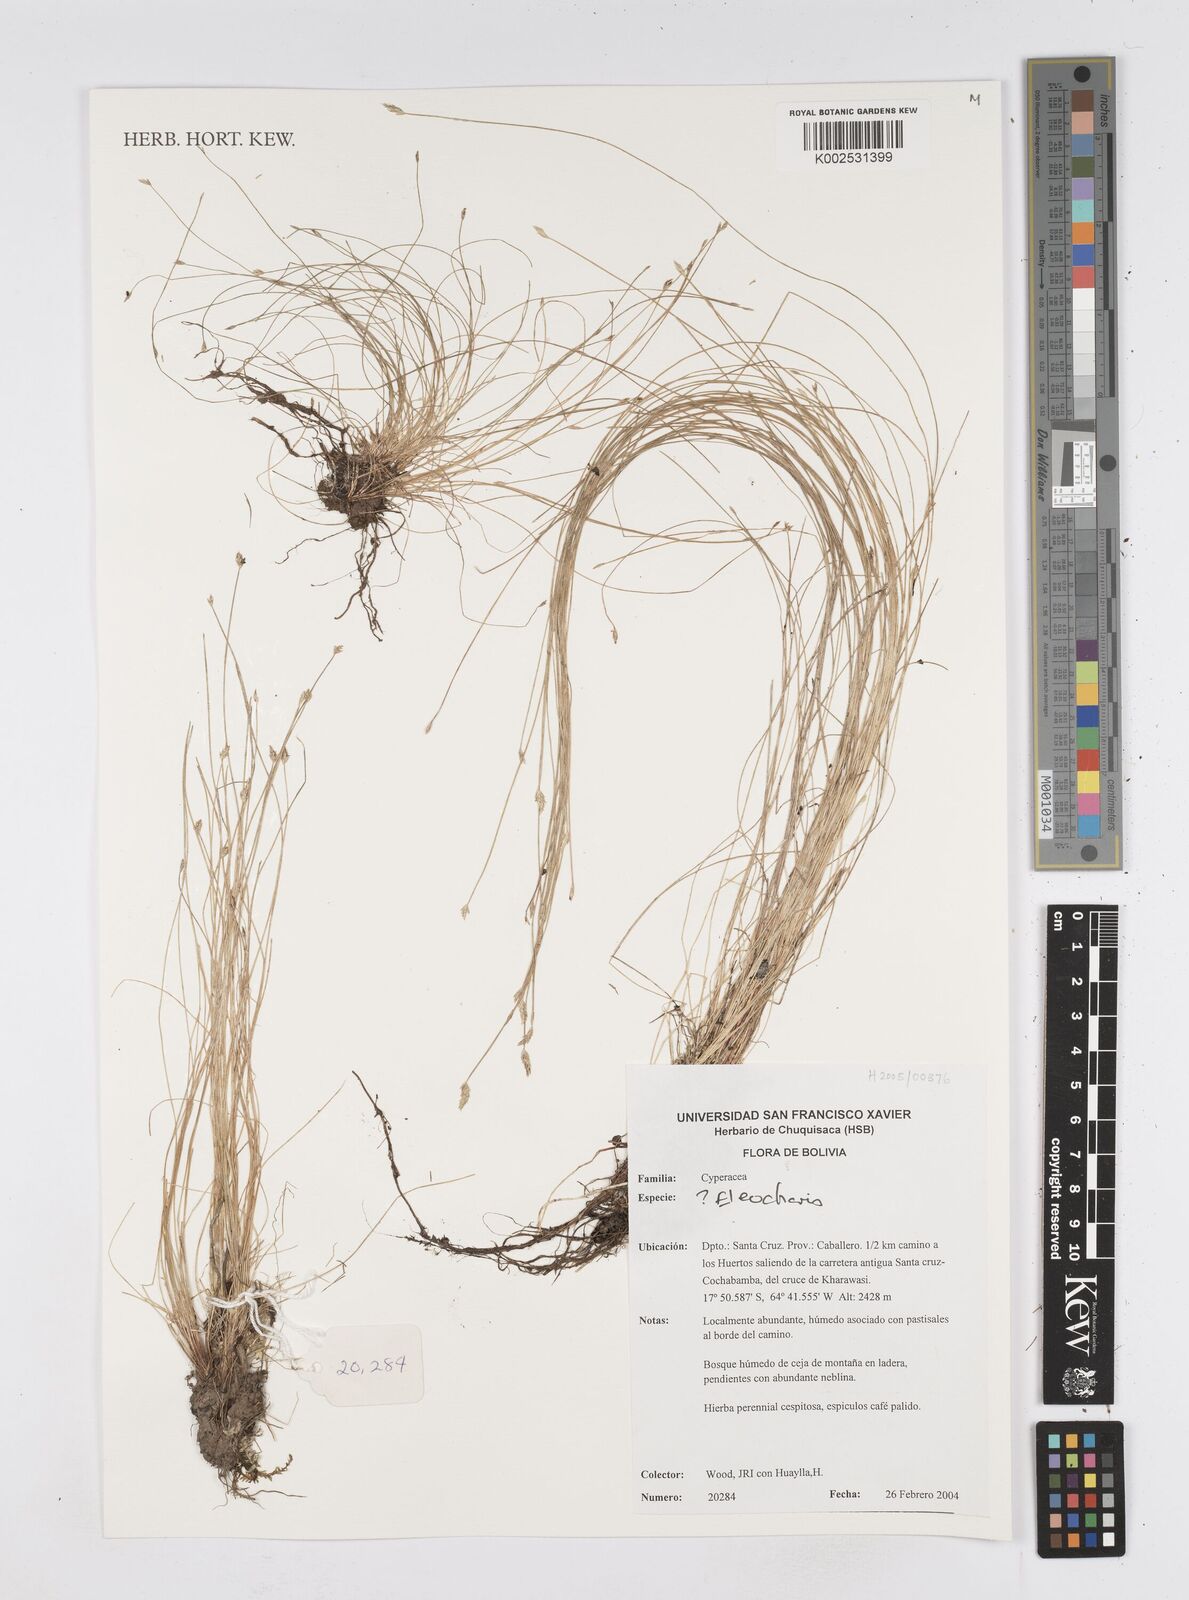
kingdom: Plantae
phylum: Tracheophyta
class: Liliopsida
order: Poales
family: Cyperaceae
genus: Eleocharis
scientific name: Eleocharis
